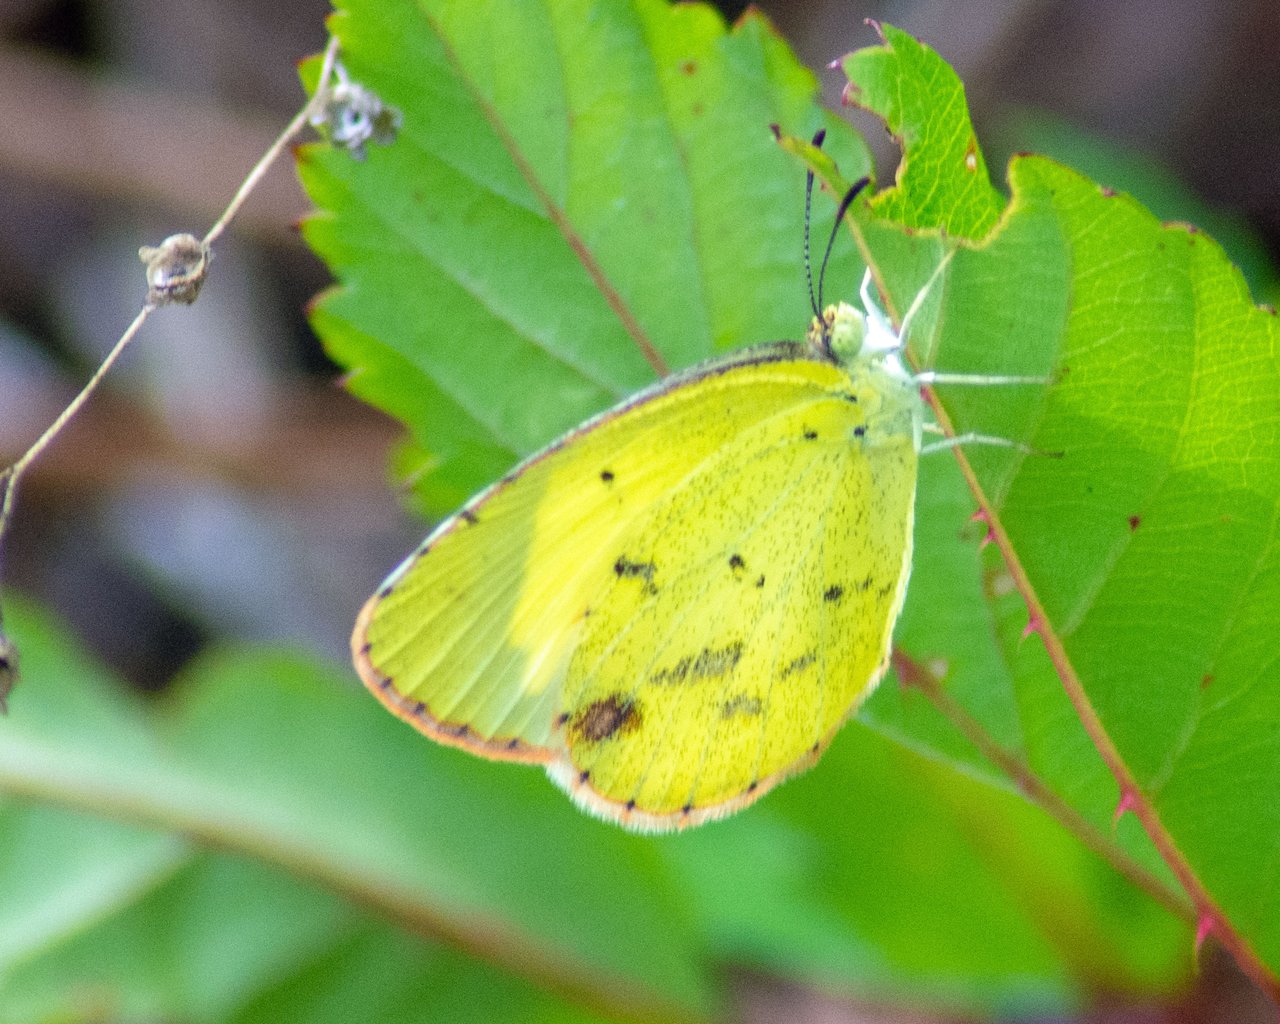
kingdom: Animalia
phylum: Arthropoda
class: Insecta
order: Lepidoptera
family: Pieridae
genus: Pyrisitia
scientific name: Pyrisitia lisa
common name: Little Yellow
